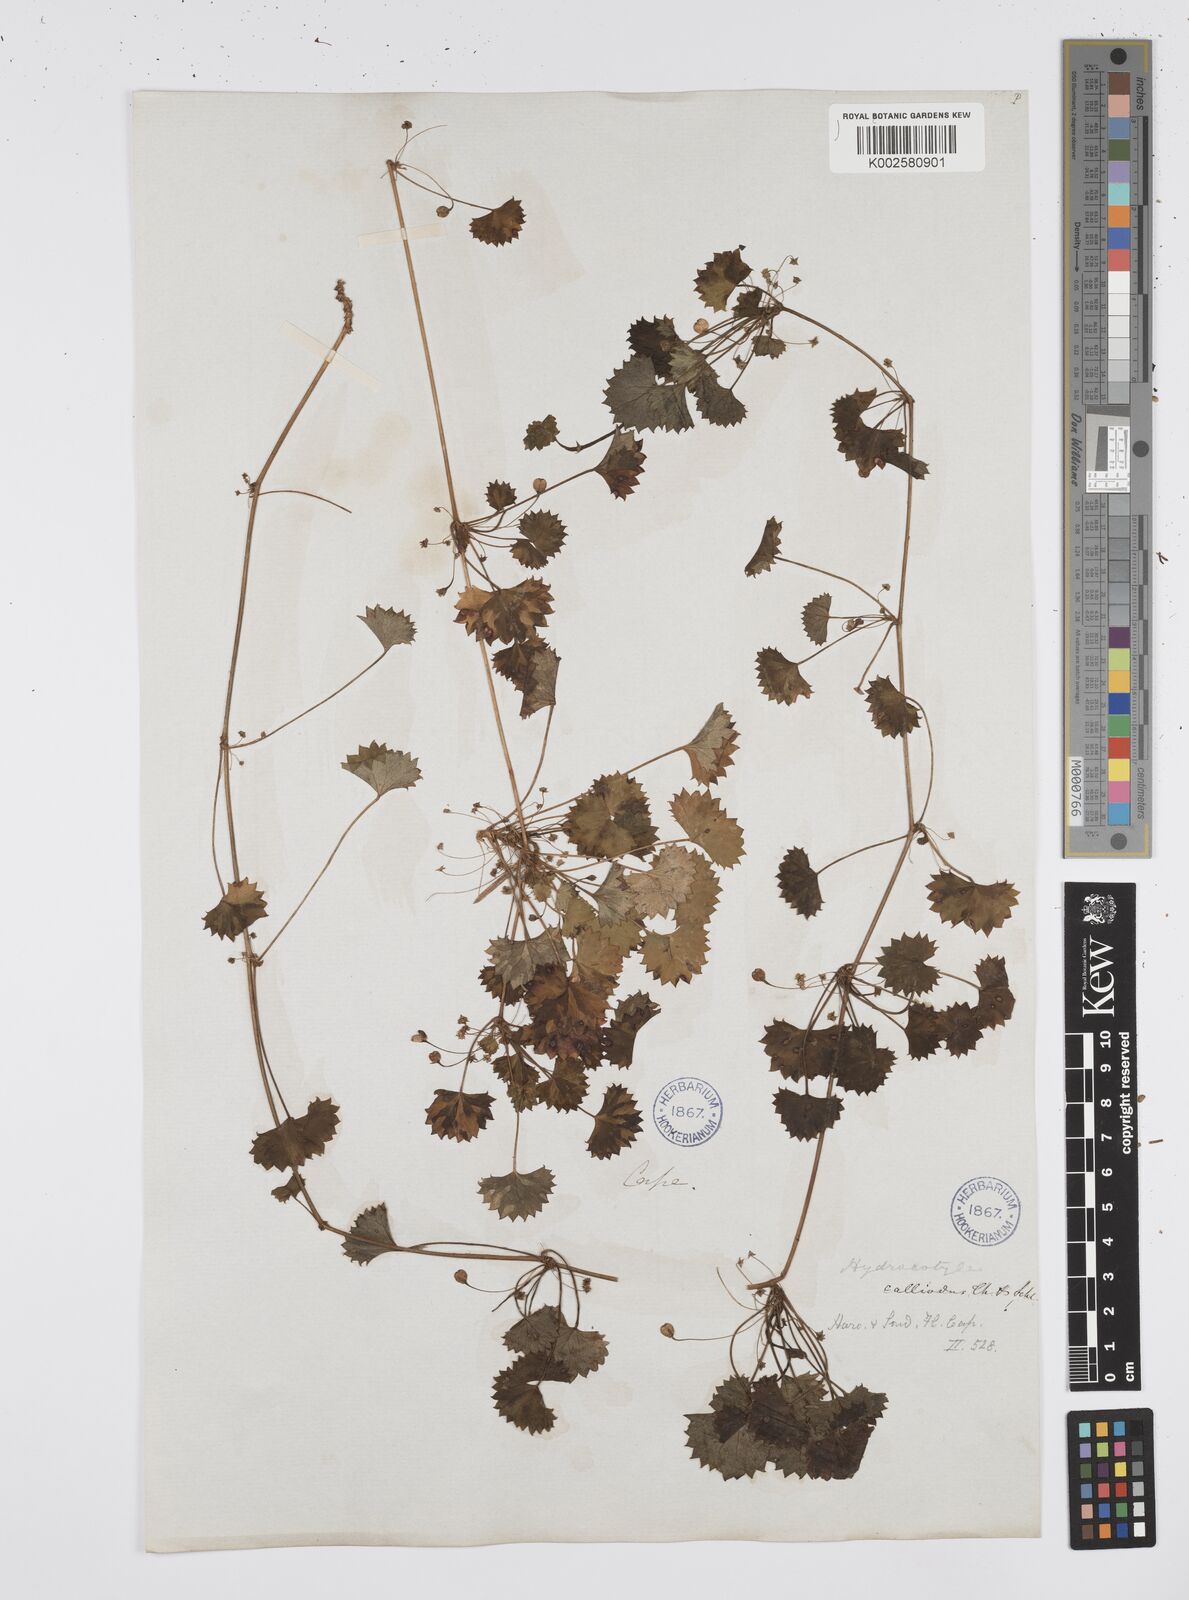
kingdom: Plantae
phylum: Tracheophyta
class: Magnoliopsida
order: Apiales
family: Apiaceae
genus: Centella
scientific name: Centella
